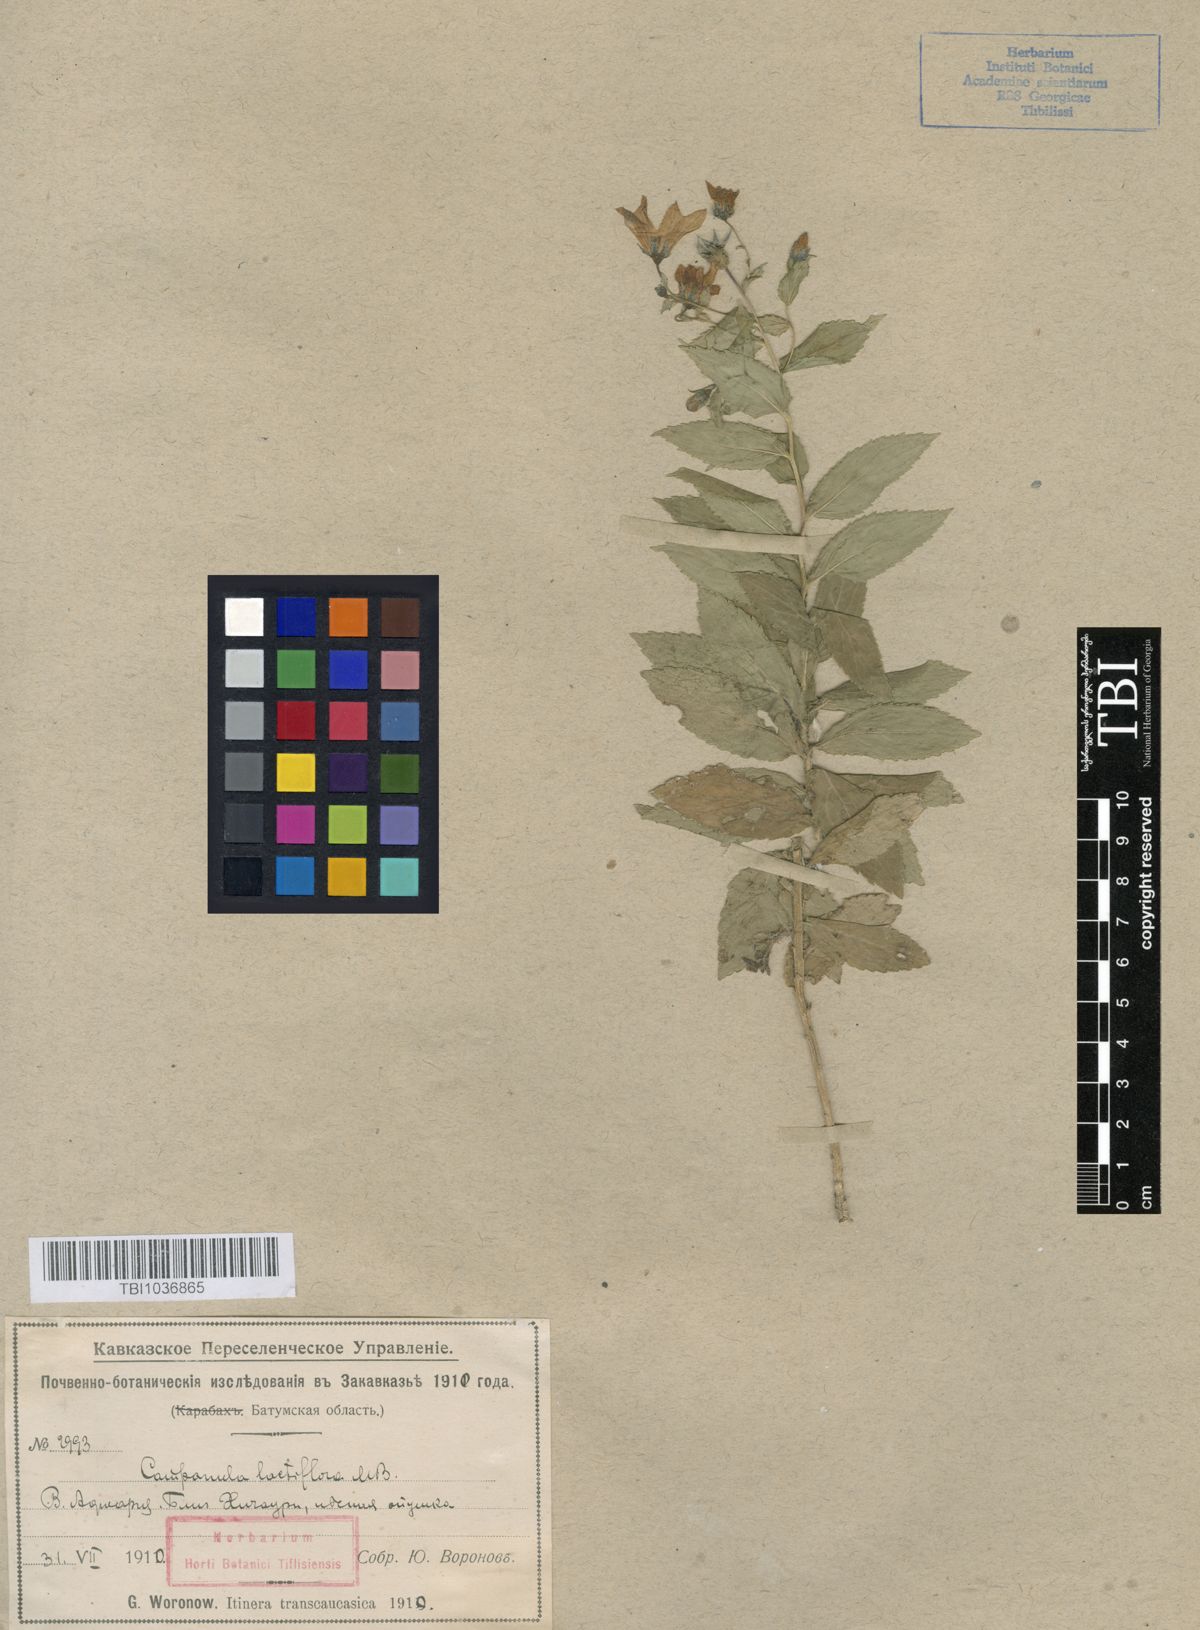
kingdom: Plantae
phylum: Tracheophyta
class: Magnoliopsida
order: Asterales
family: Campanulaceae
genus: Campanula
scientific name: Campanula lactiflora
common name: Milky bellflower
